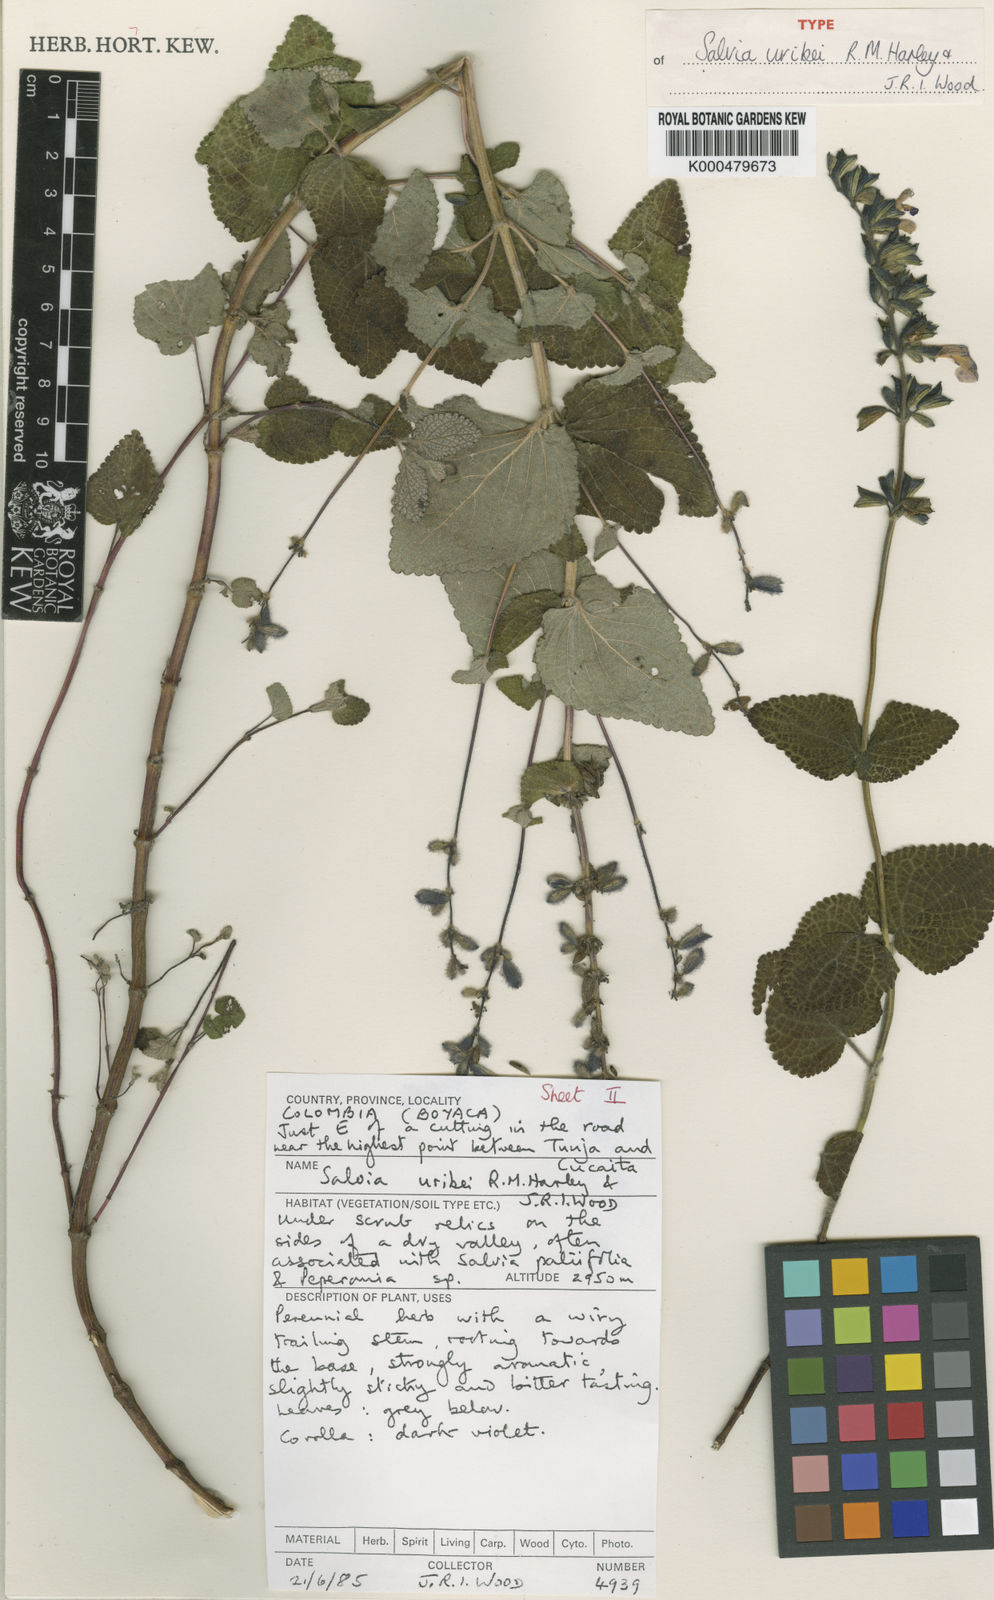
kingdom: Plantae
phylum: Tracheophyta
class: Magnoliopsida
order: Lamiales
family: Lamiaceae
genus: Salvia
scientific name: Salvia uribei
